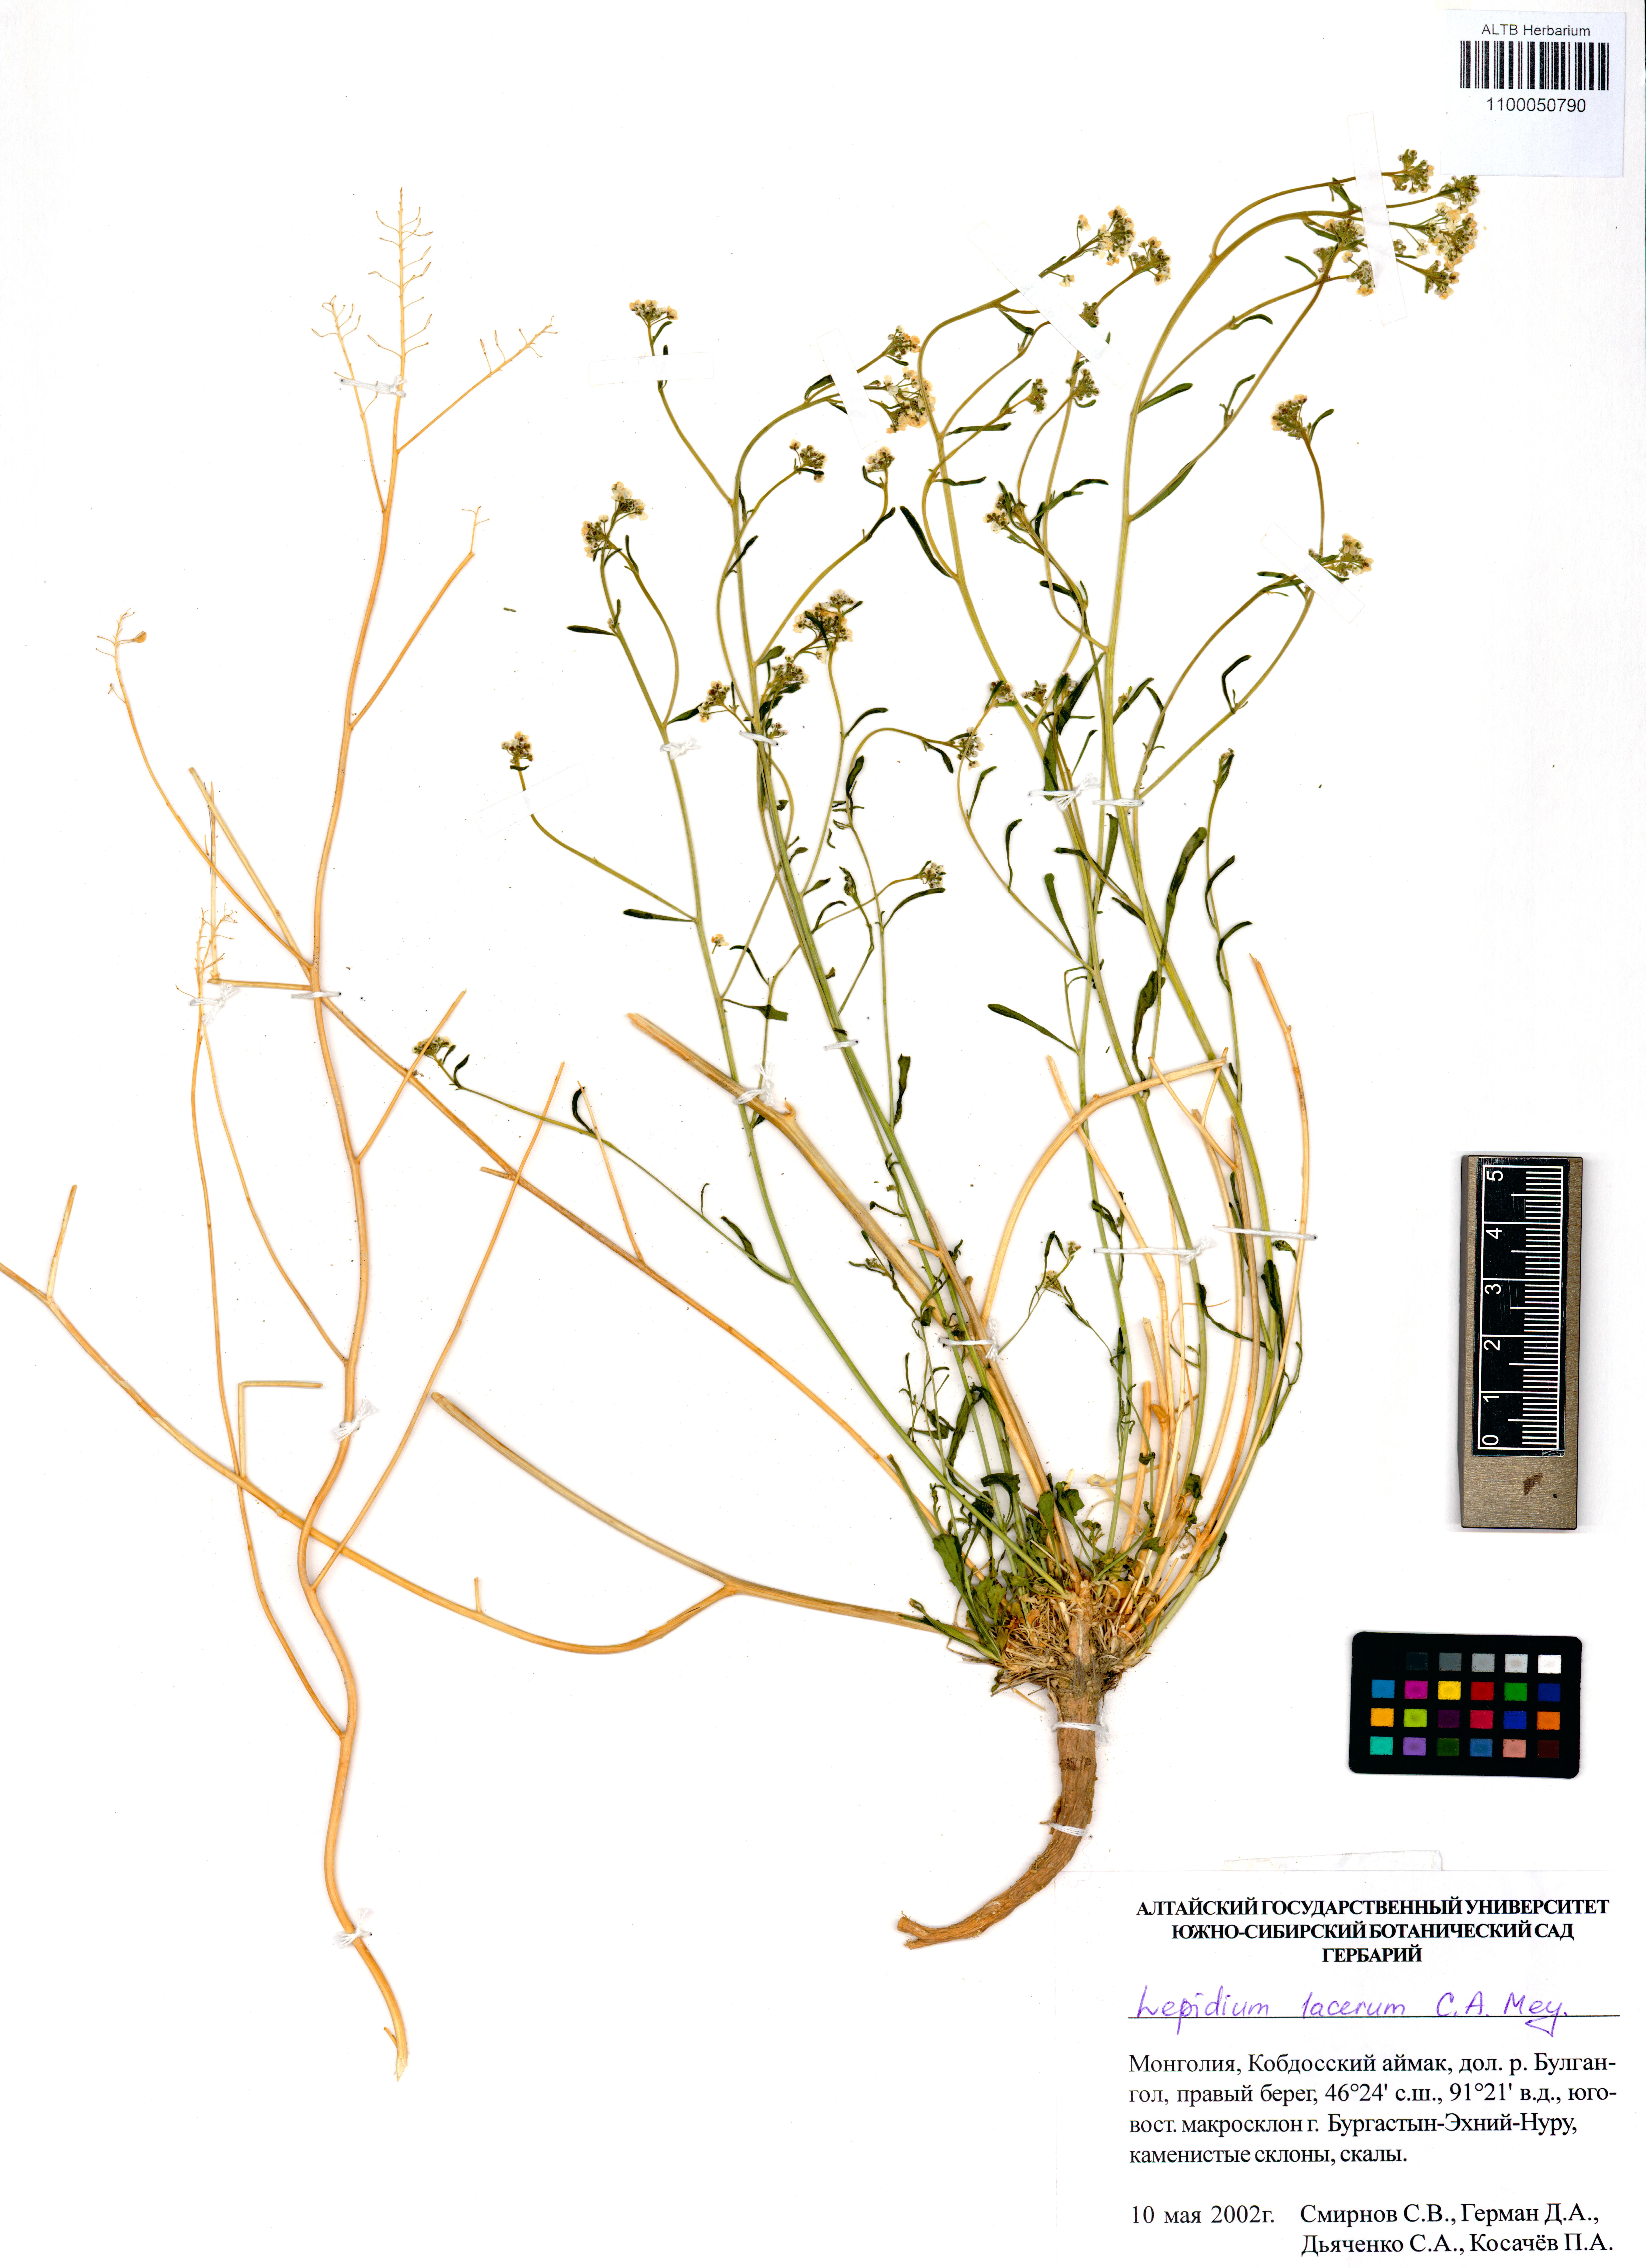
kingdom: Plantae
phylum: Tracheophyta
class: Magnoliopsida
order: Brassicales
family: Brassicaceae
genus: Lepidium
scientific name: Lepidium lacerum
